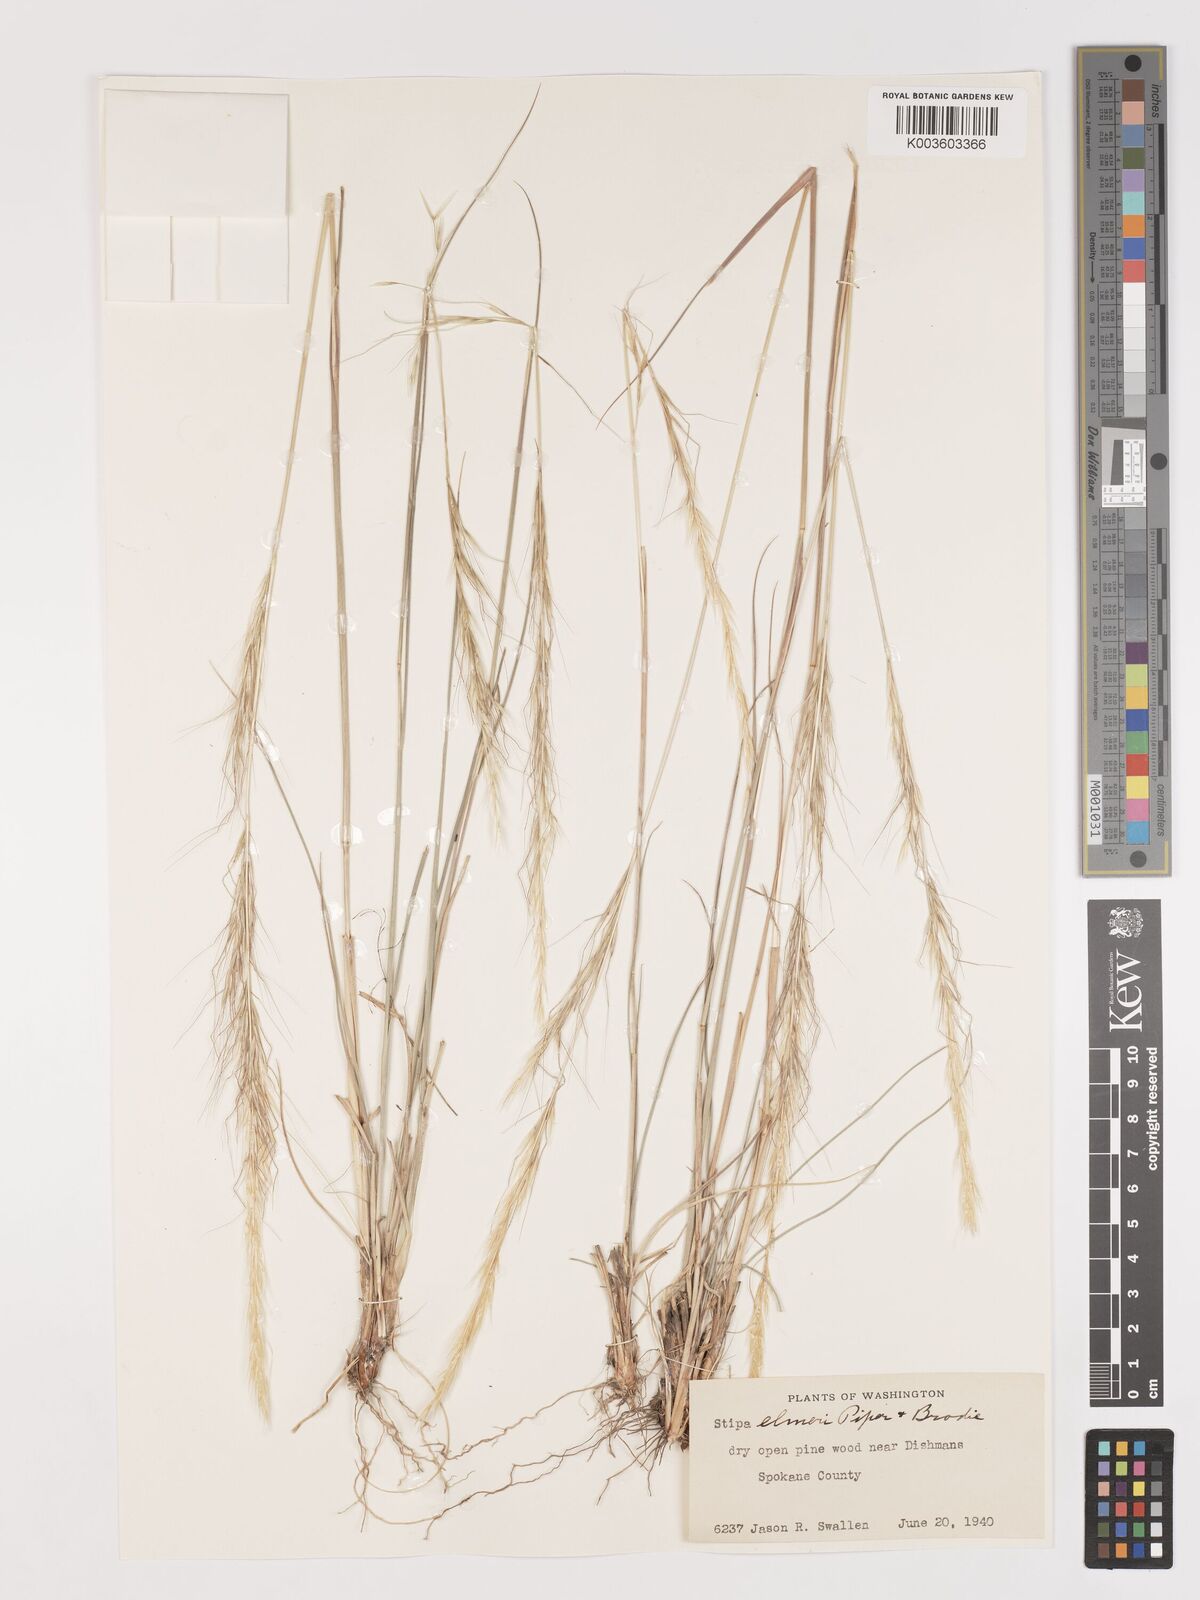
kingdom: Plantae
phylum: Tracheophyta
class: Liliopsida
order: Poales
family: Poaceae
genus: Eriocoma
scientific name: Eriocoma thurberiana
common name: Thurber's needlegrass
